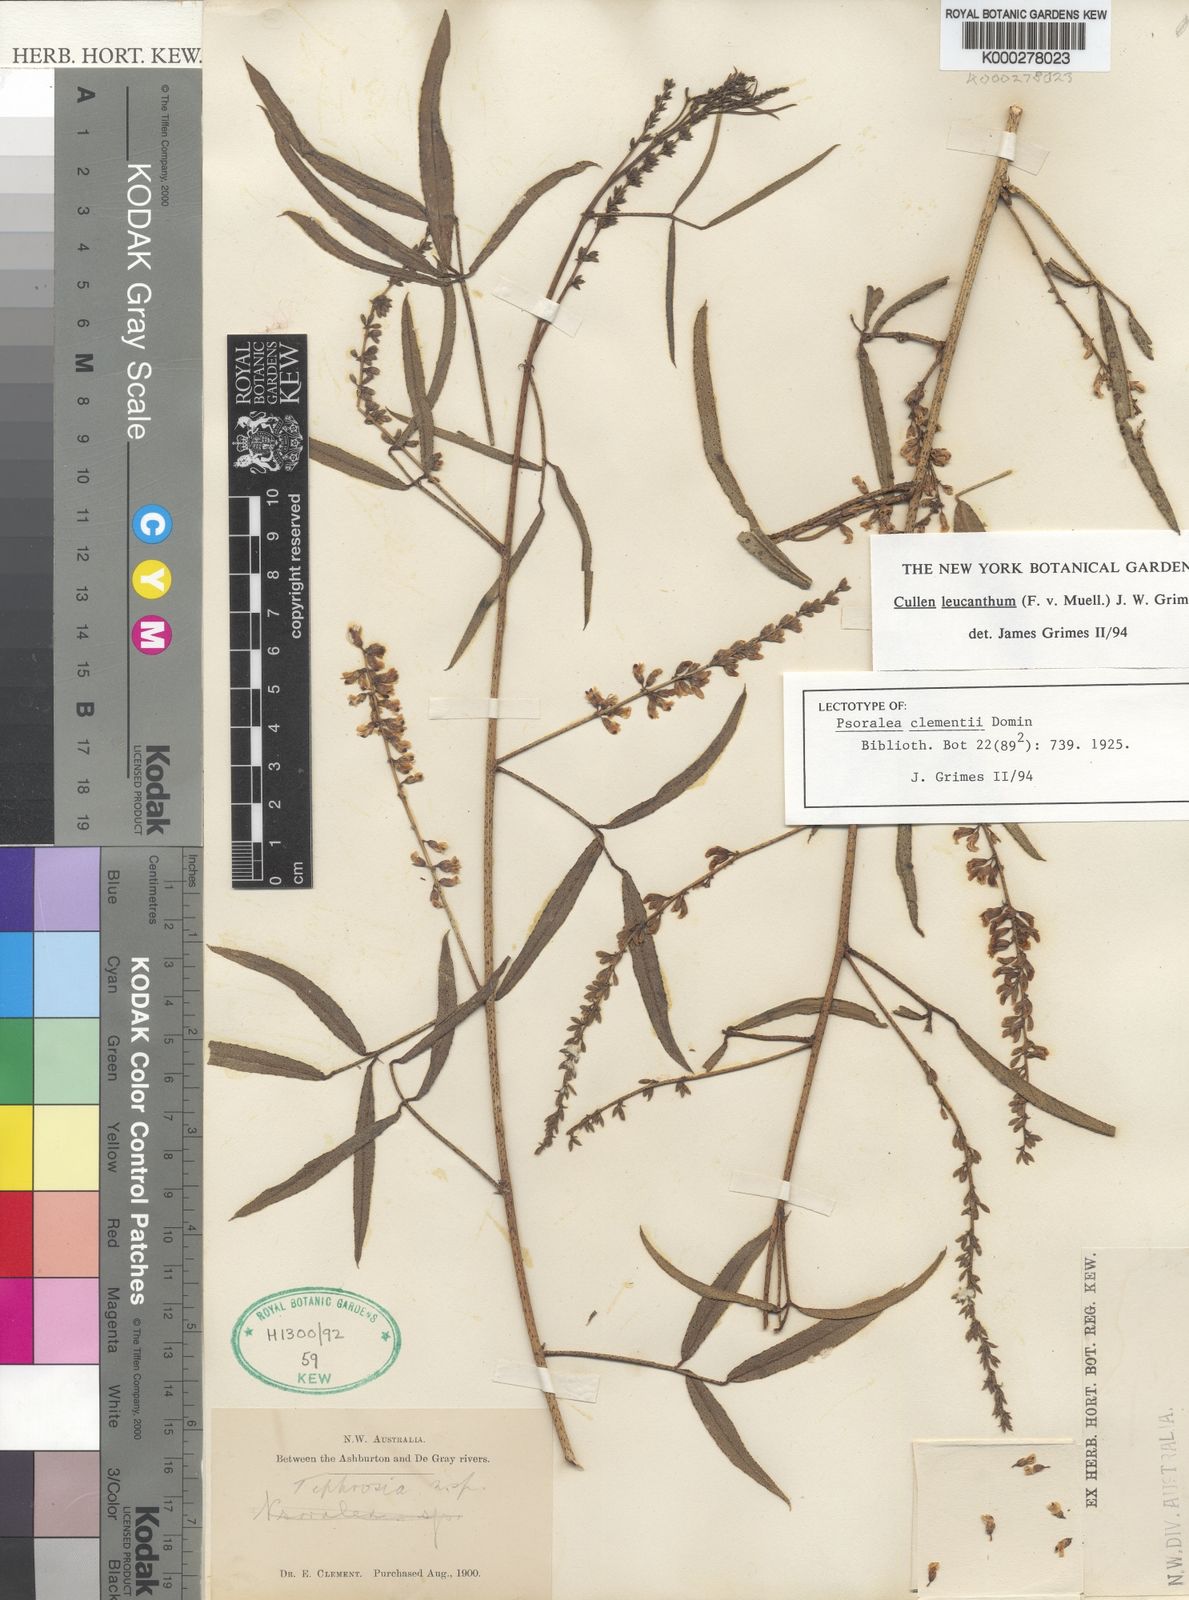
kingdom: Plantae
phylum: Tracheophyta
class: Magnoliopsida
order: Fabales
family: Fabaceae
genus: Cullen
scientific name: Cullen leucanthum
